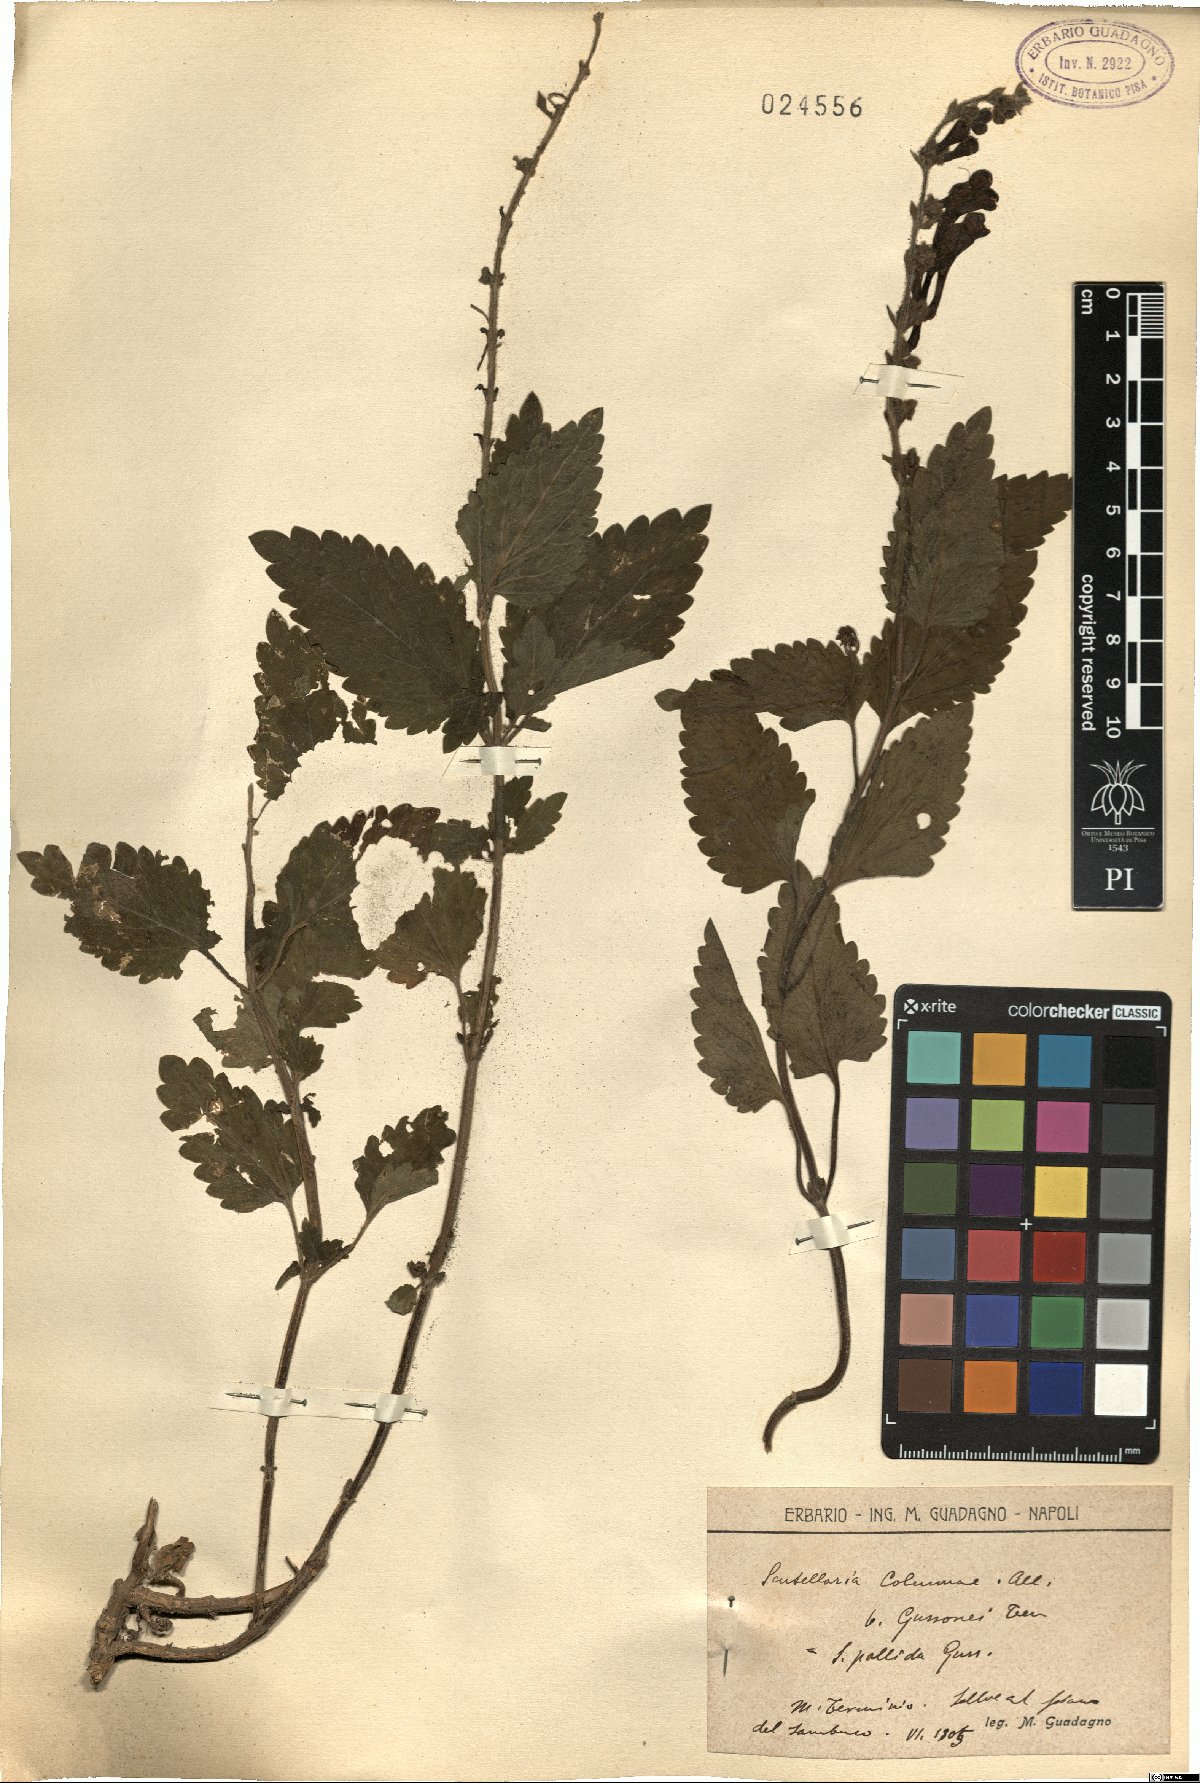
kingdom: Plantae
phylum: Tracheophyta
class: Magnoliopsida
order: Lamiales
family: Lamiaceae
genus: Scutellaria
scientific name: Scutellaria columnae
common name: Large skullcap
